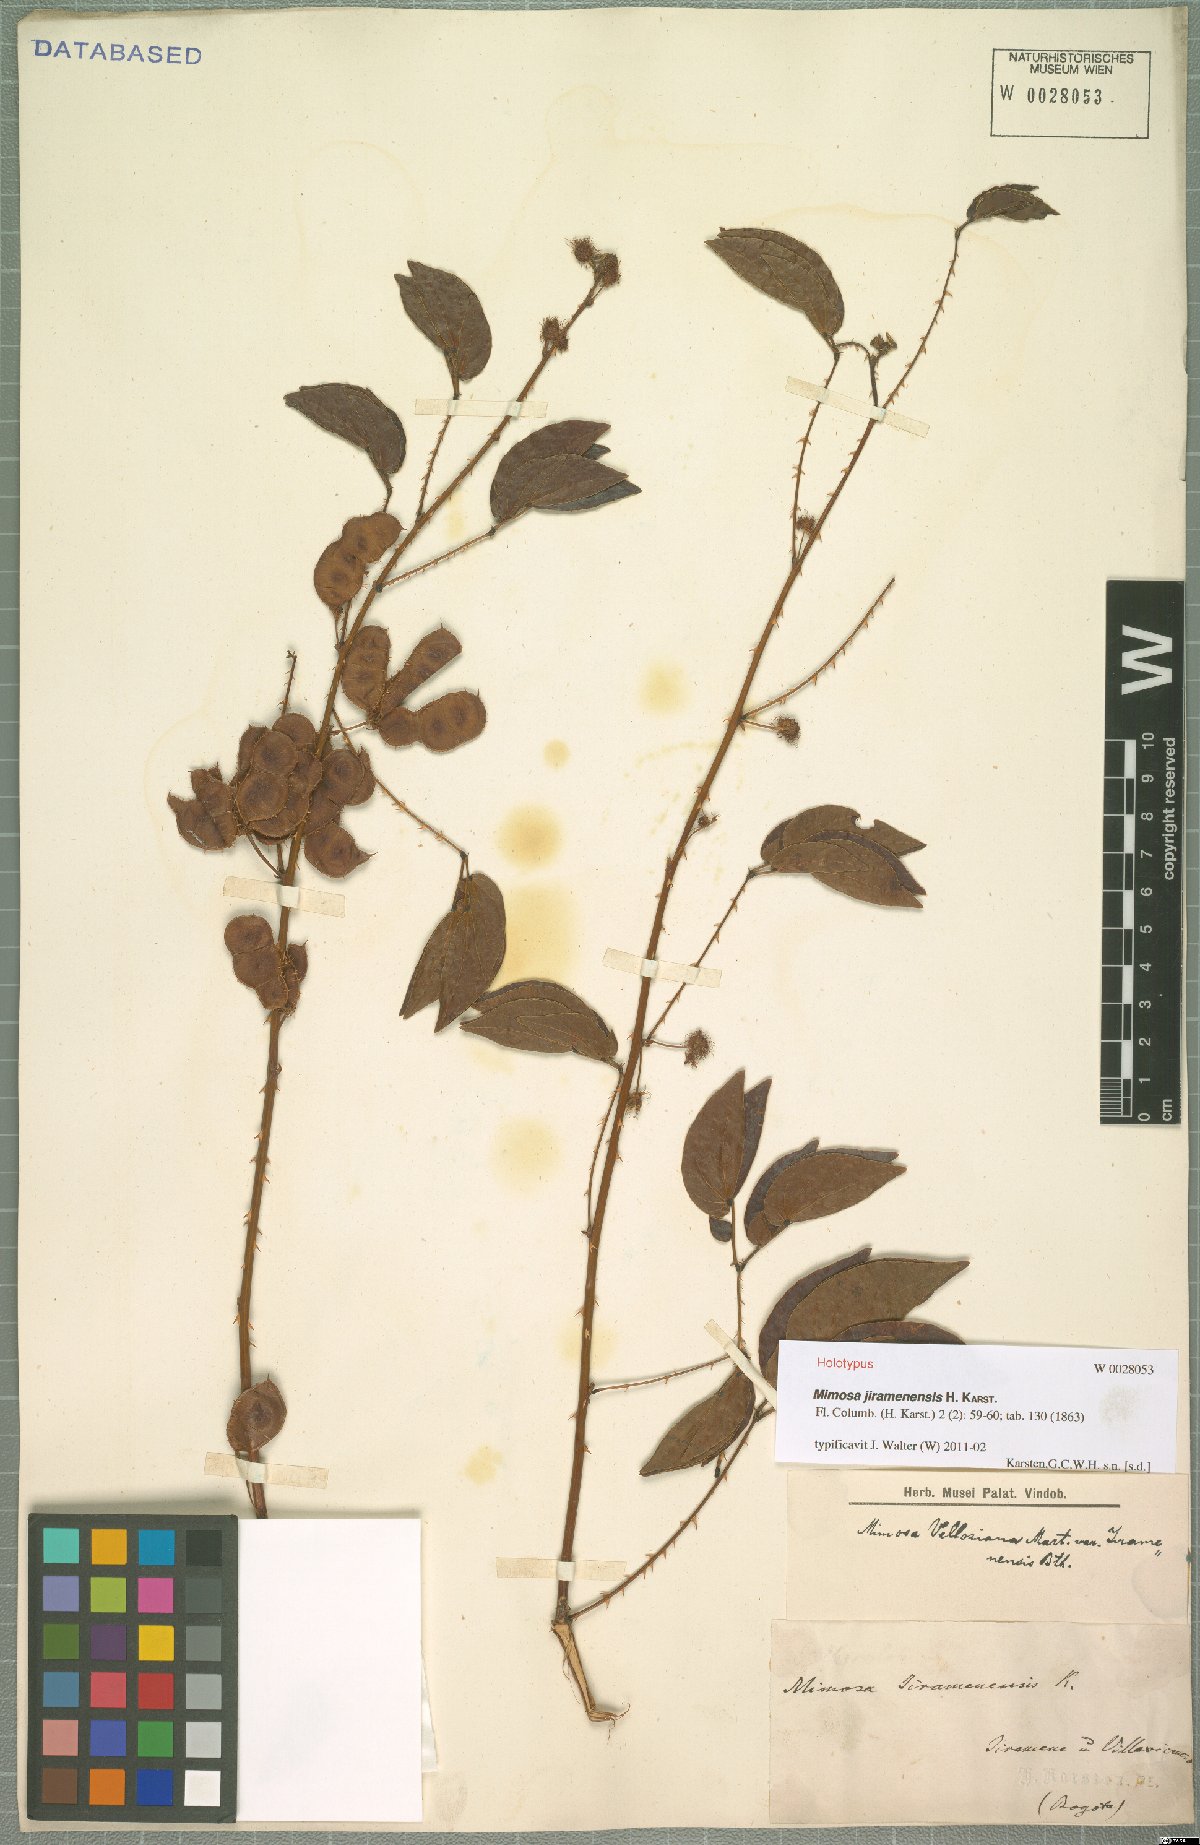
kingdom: Plantae
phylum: Tracheophyta
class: Magnoliopsida
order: Fabales
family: Fabaceae
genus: Mimosa
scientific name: Mimosa velloziana
